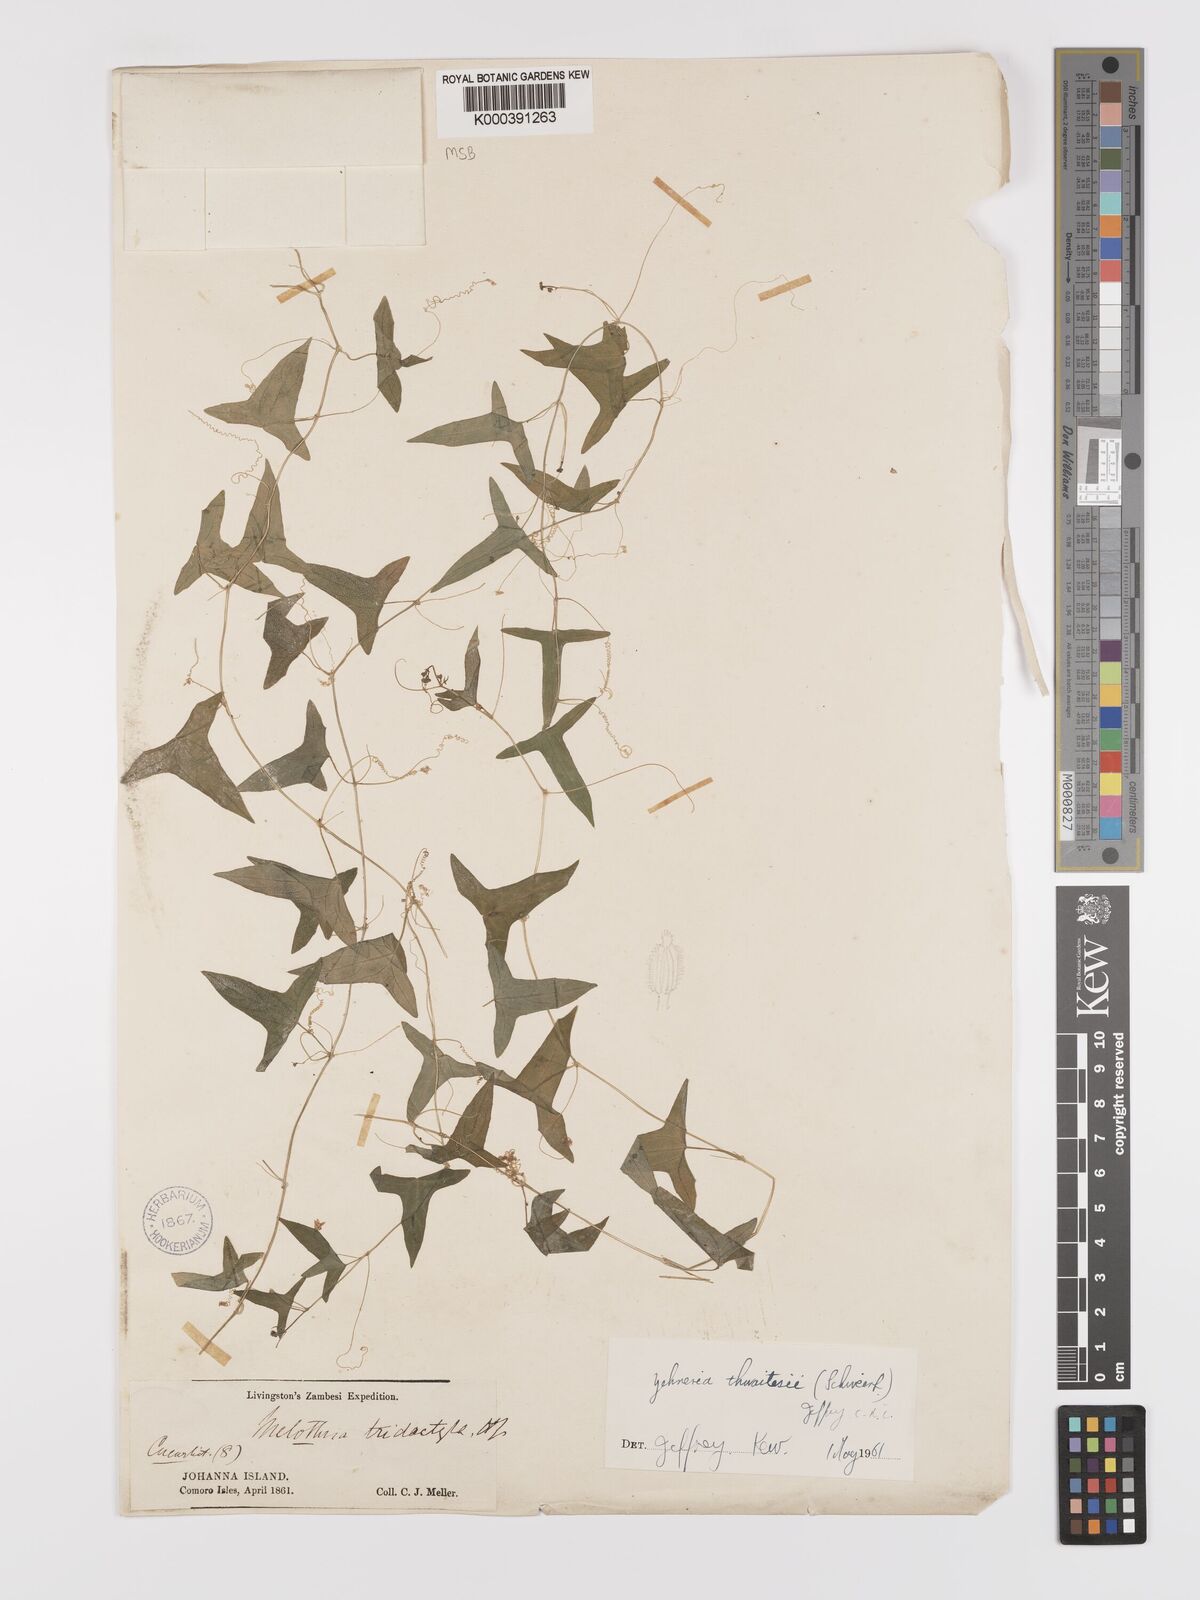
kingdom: Plantae
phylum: Tracheophyta
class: Magnoliopsida
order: Cucurbitales
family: Cucurbitaceae
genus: Zehneria
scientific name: Zehneria thwaitesii
